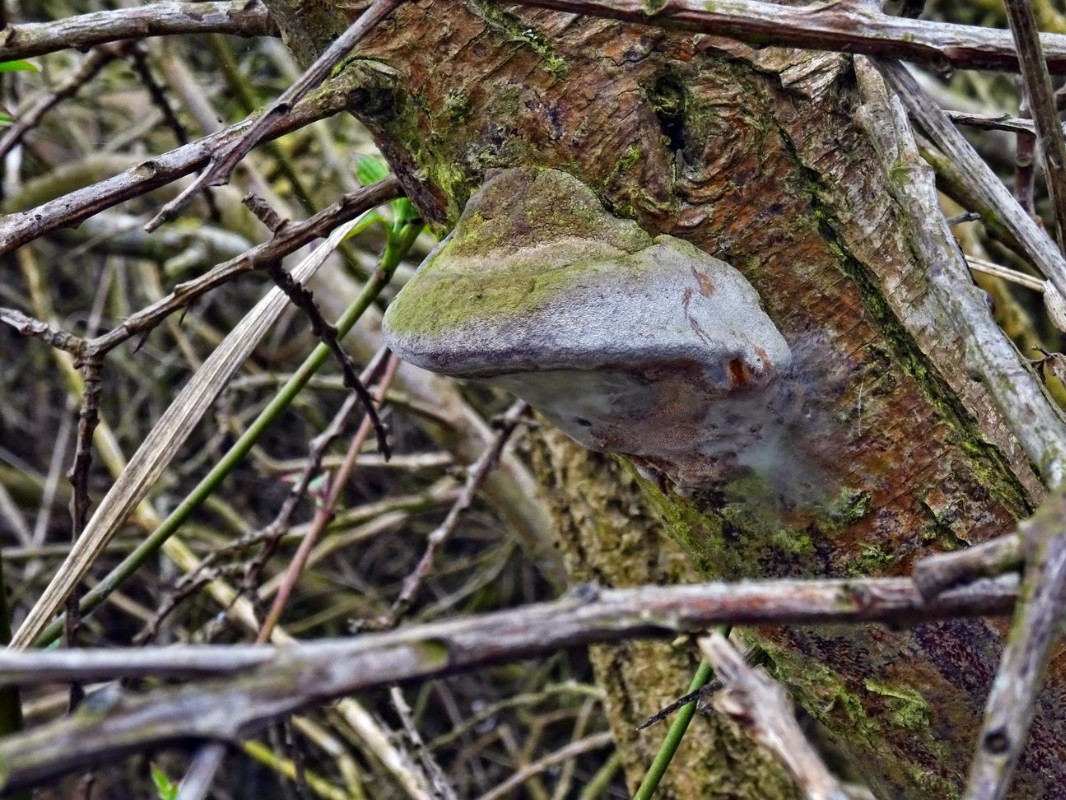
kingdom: Fungi
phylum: Basidiomycota
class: Agaricomycetes
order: Hymenochaetales
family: Hymenochaetaceae
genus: Fomitiporia
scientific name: Fomitiporia hippophaeicola
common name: havtorn-ildporesvamp
